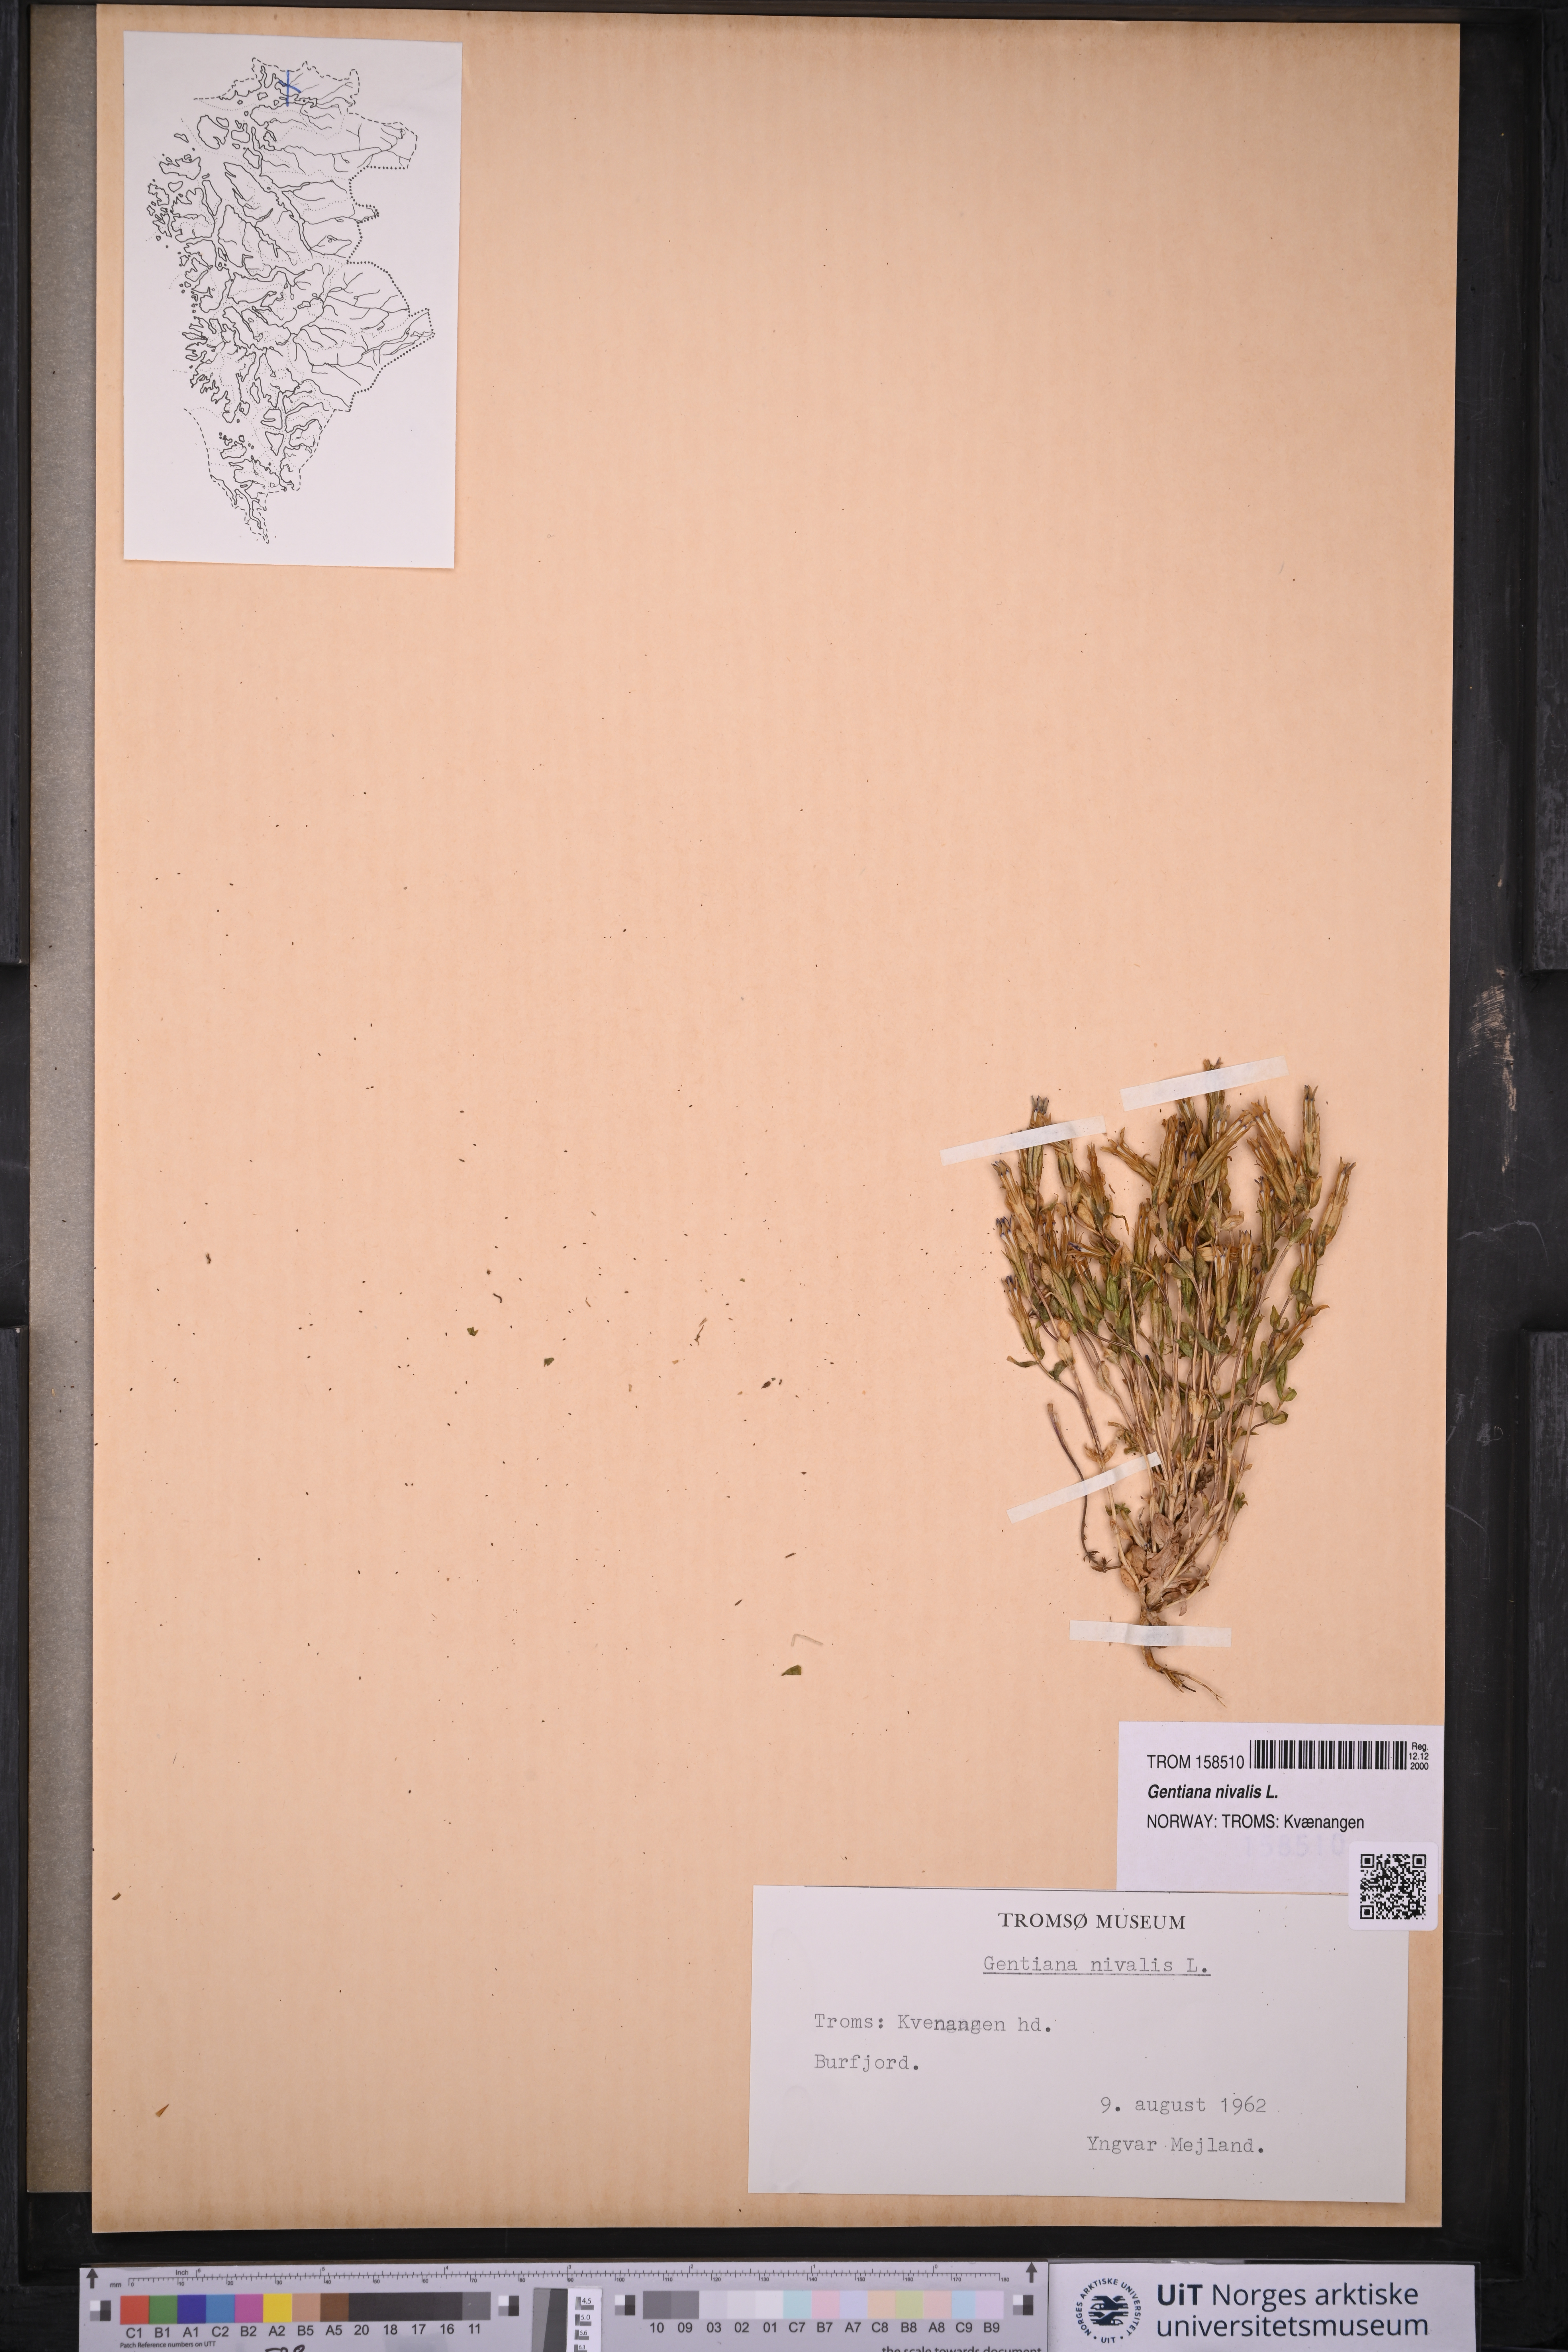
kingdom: Plantae
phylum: Tracheophyta
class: Magnoliopsida
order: Gentianales
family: Gentianaceae
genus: Gentiana
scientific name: Gentiana nivalis
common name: Alpine gentian
